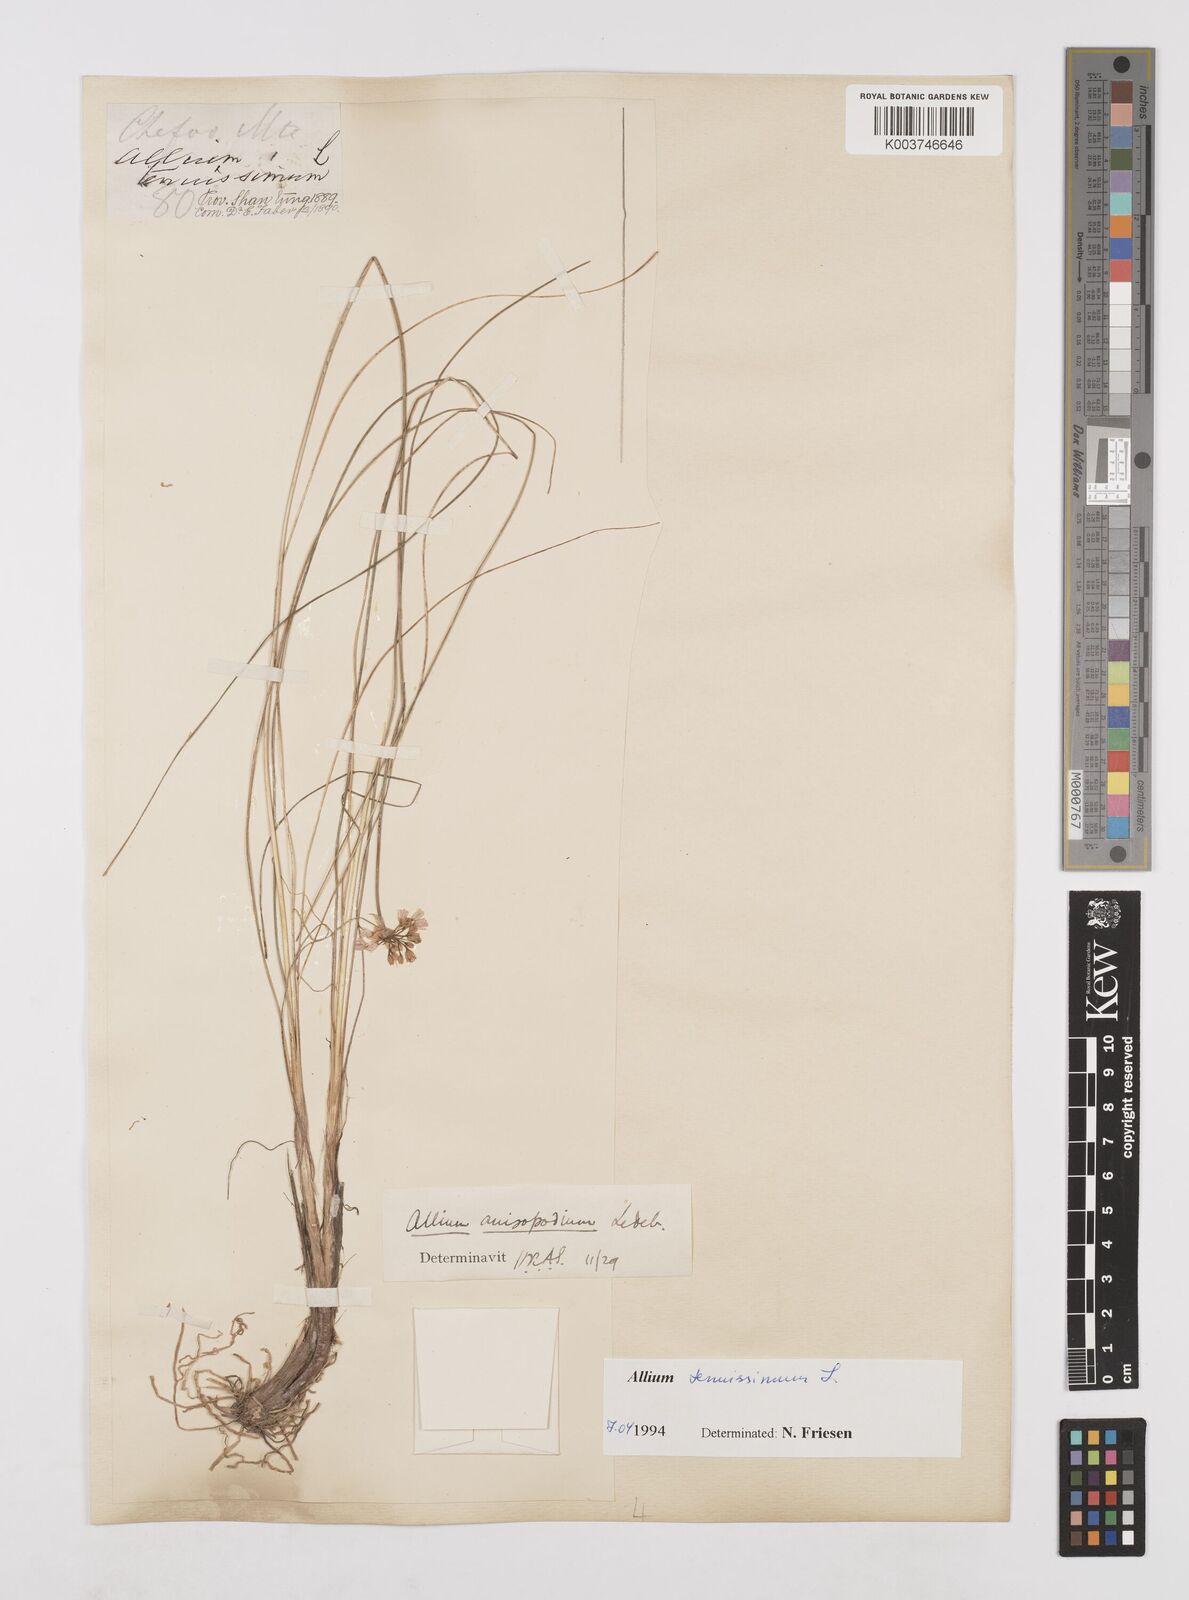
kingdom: Plantae
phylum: Tracheophyta
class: Liliopsida
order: Asparagales
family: Amaryllidaceae
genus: Allium
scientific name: Allium tenuissimum
